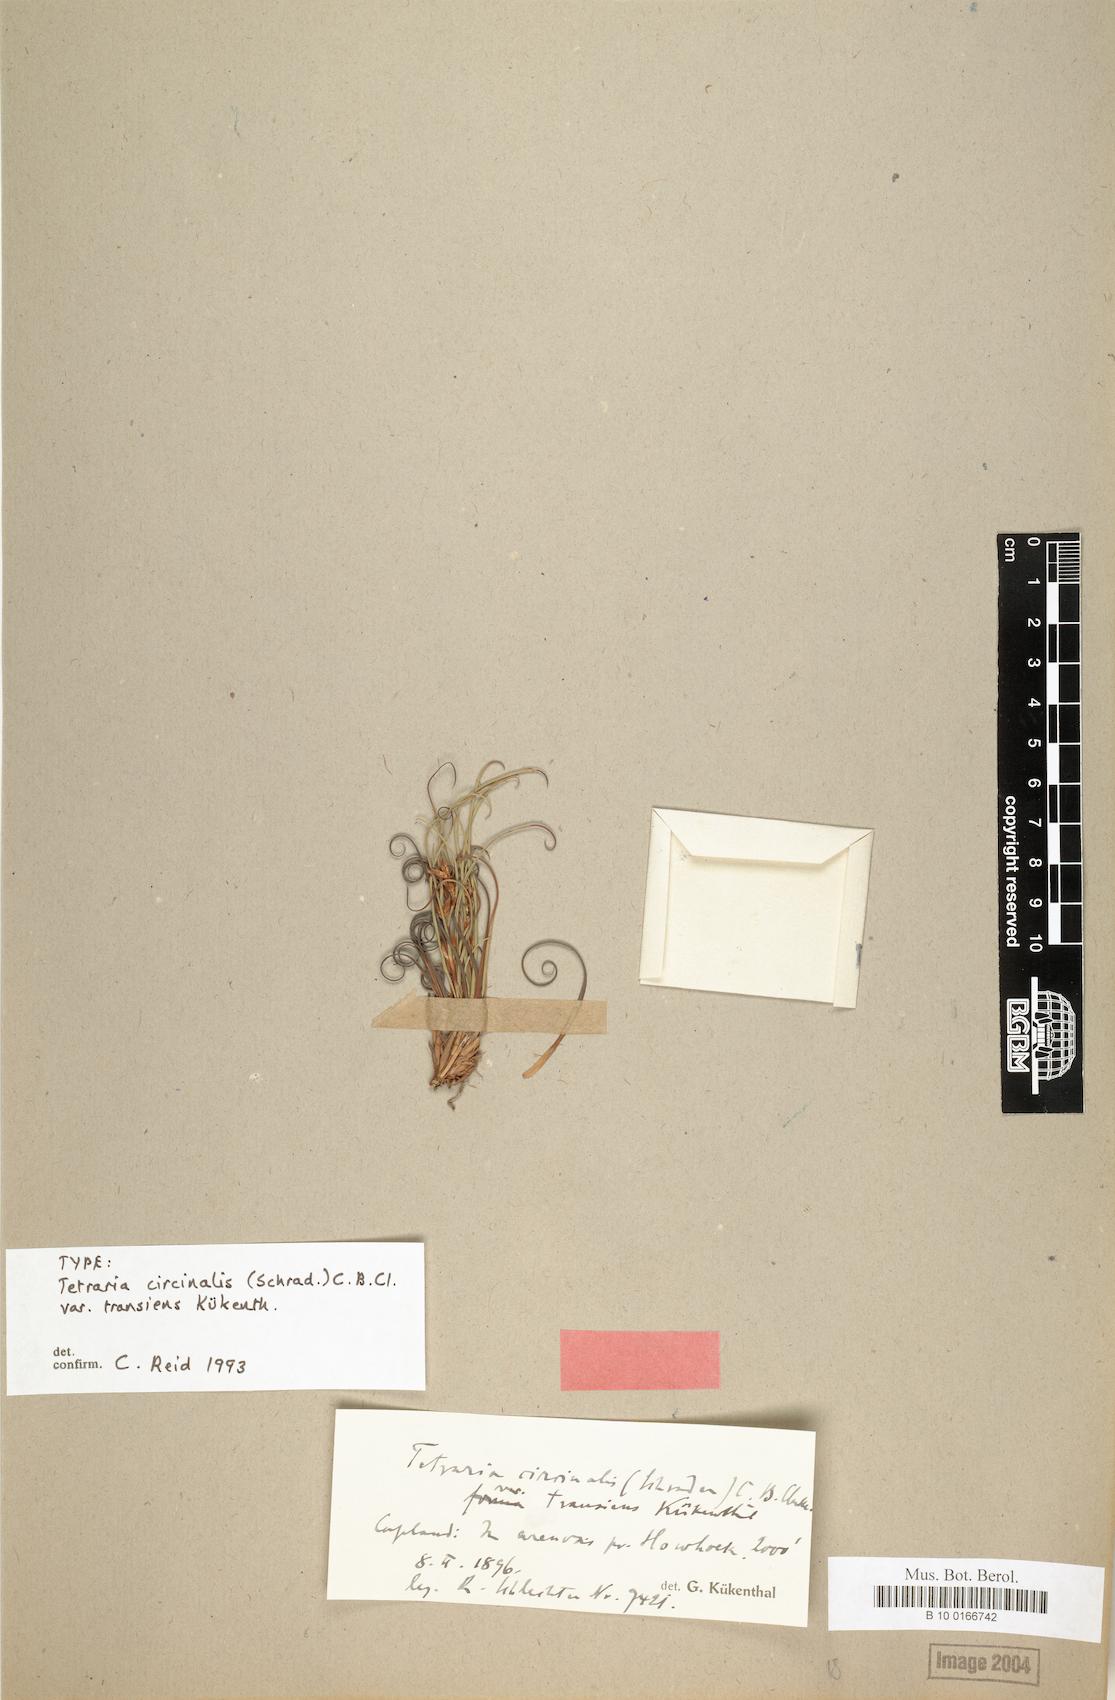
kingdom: Plantae
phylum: Tracheophyta
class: Liliopsida
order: Poales
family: Cyperaceae
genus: Tetraria
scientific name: Tetraria microstachys
